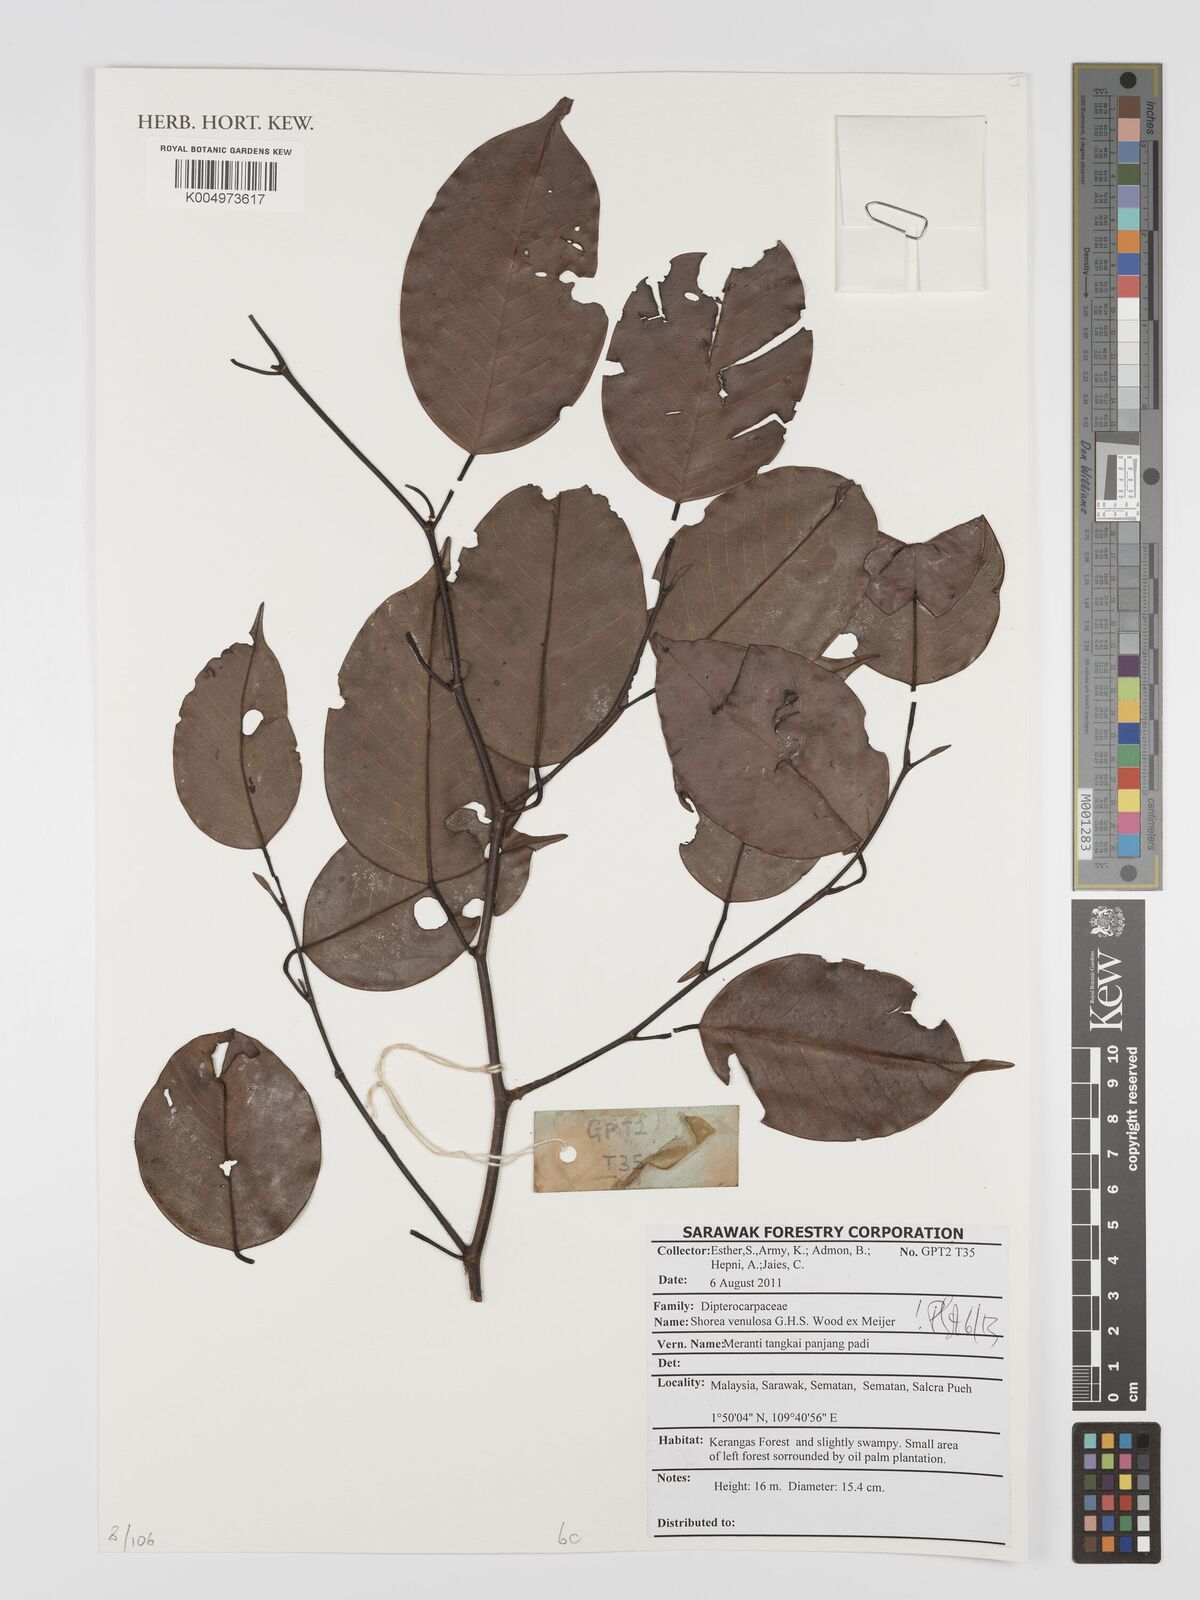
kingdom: Plantae
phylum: Tracheophyta
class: Magnoliopsida
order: Malvales
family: Dipterocarpaceae
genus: Shorea
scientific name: Shorea venulosa
